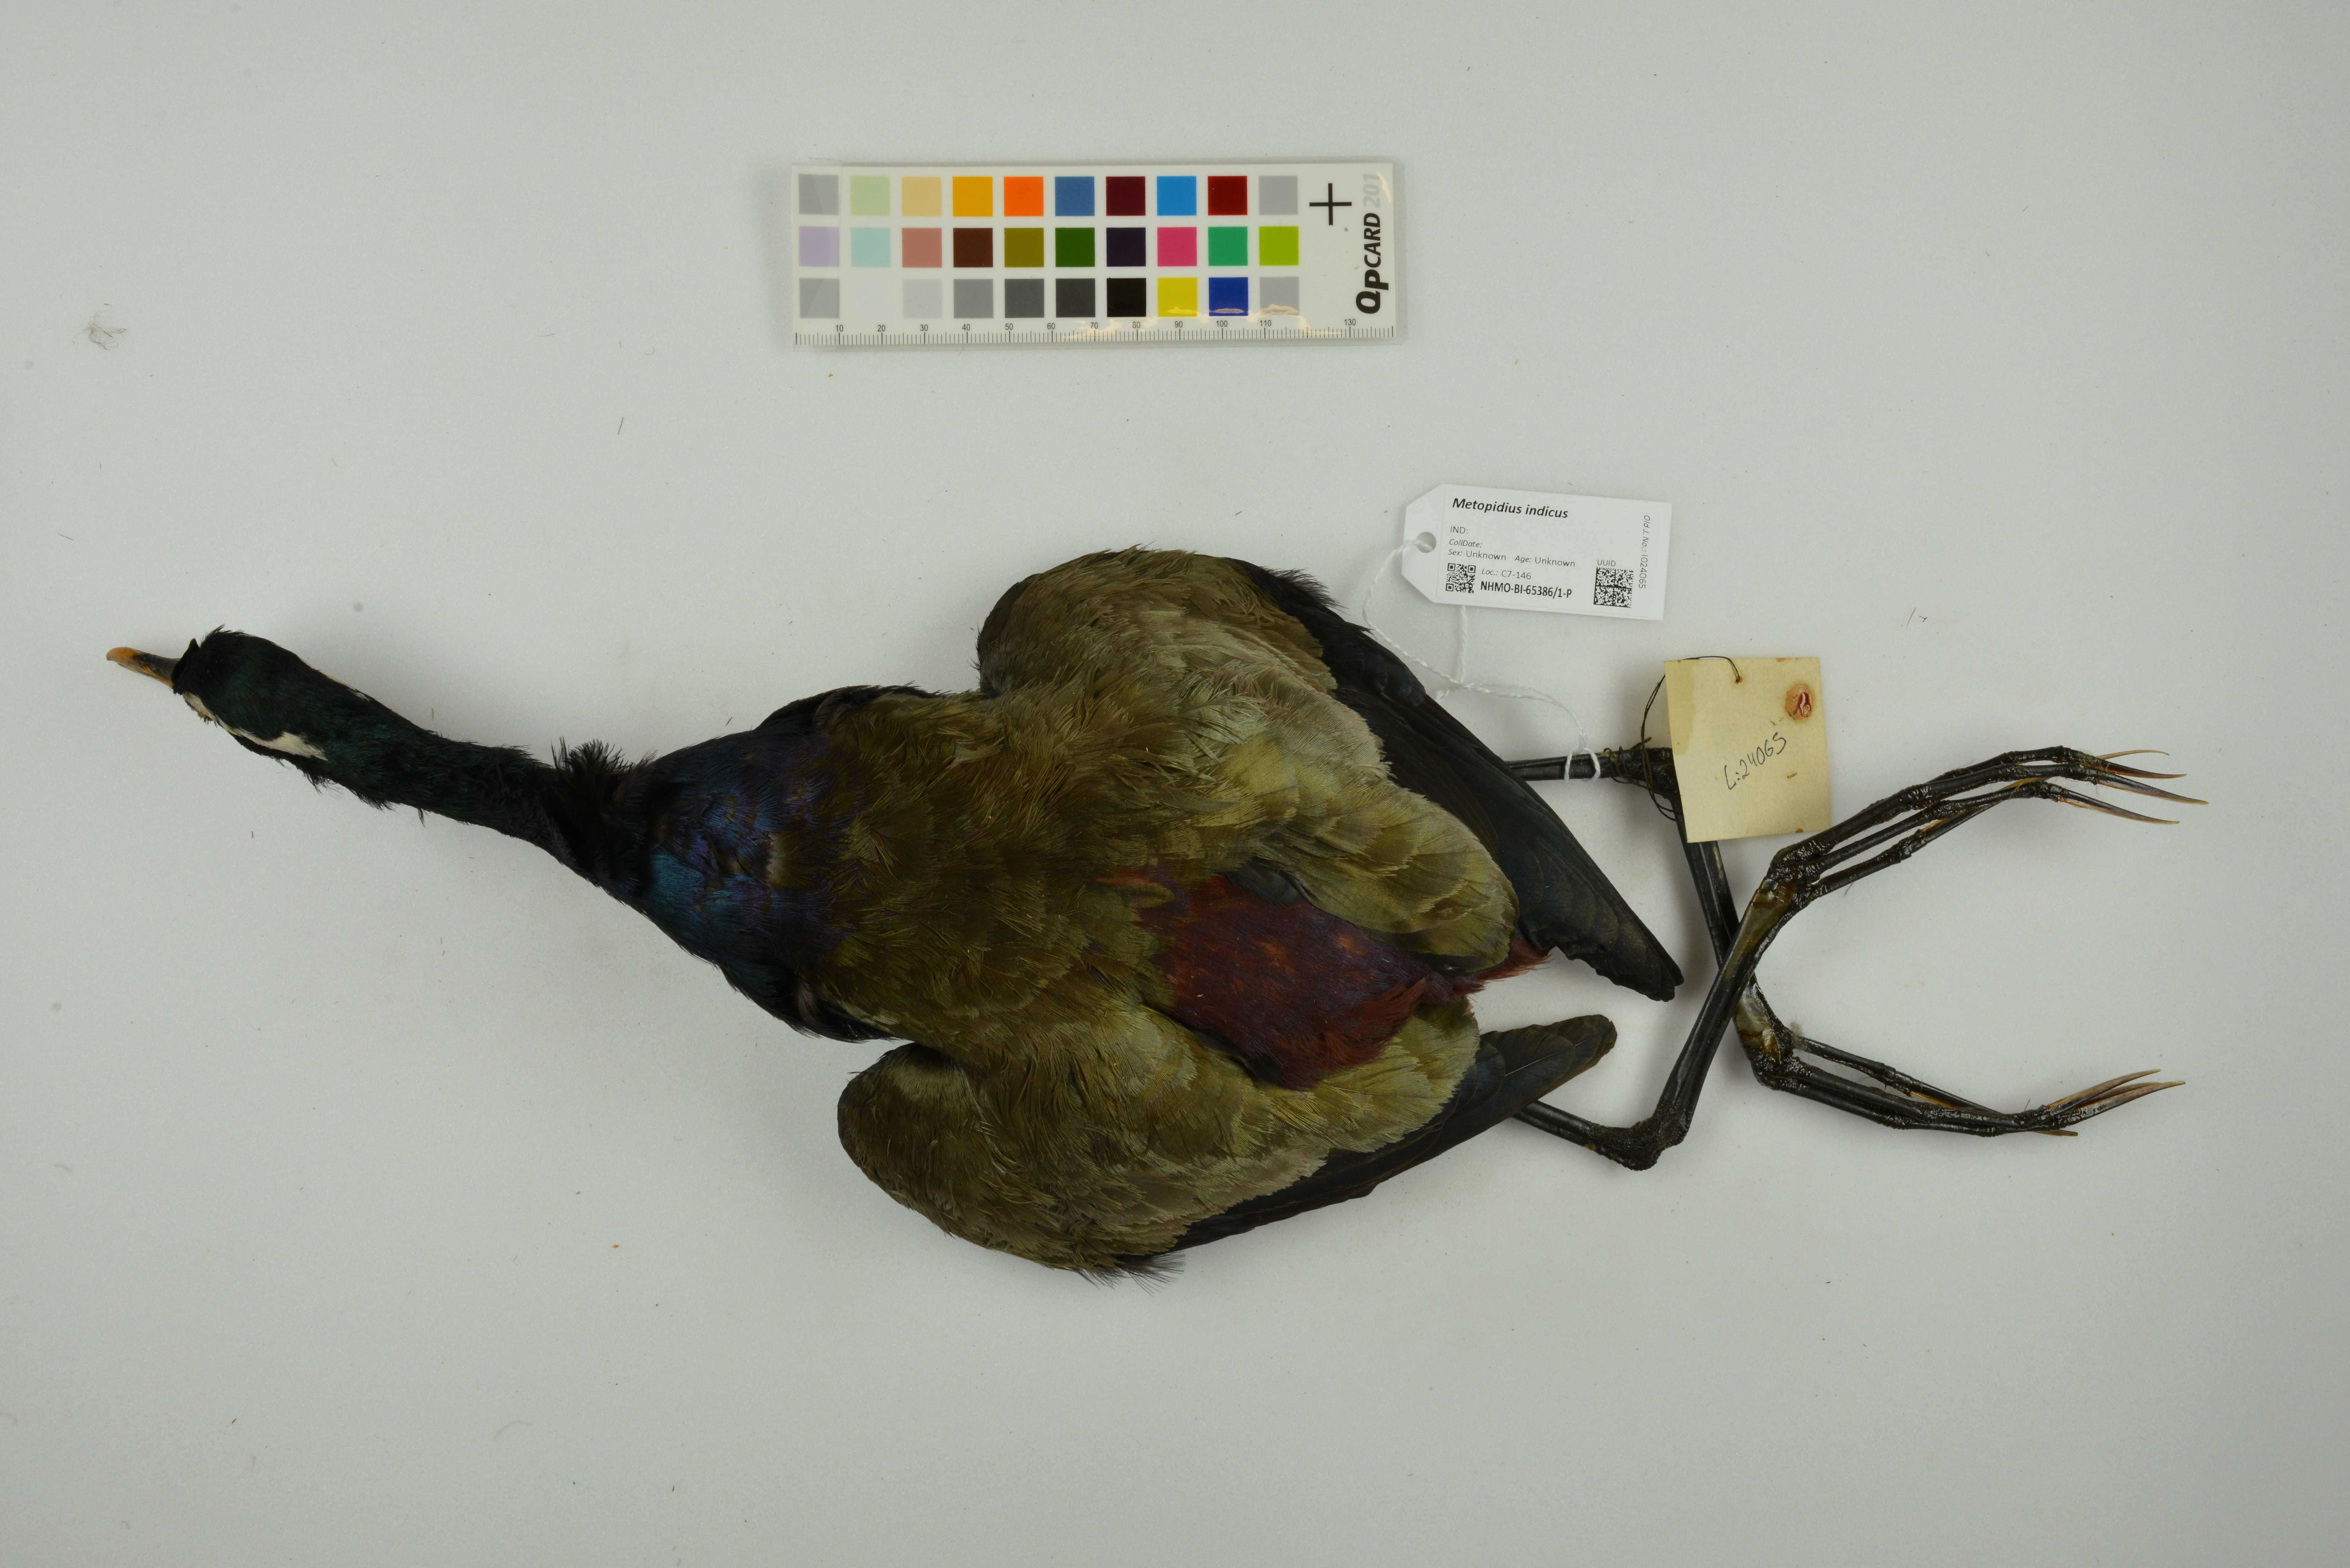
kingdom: Animalia
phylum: Chordata
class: Aves
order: Charadriiformes
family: Jacanidae
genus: Metopidius
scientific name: Metopidius indicus
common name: Bronze-winged jacana
